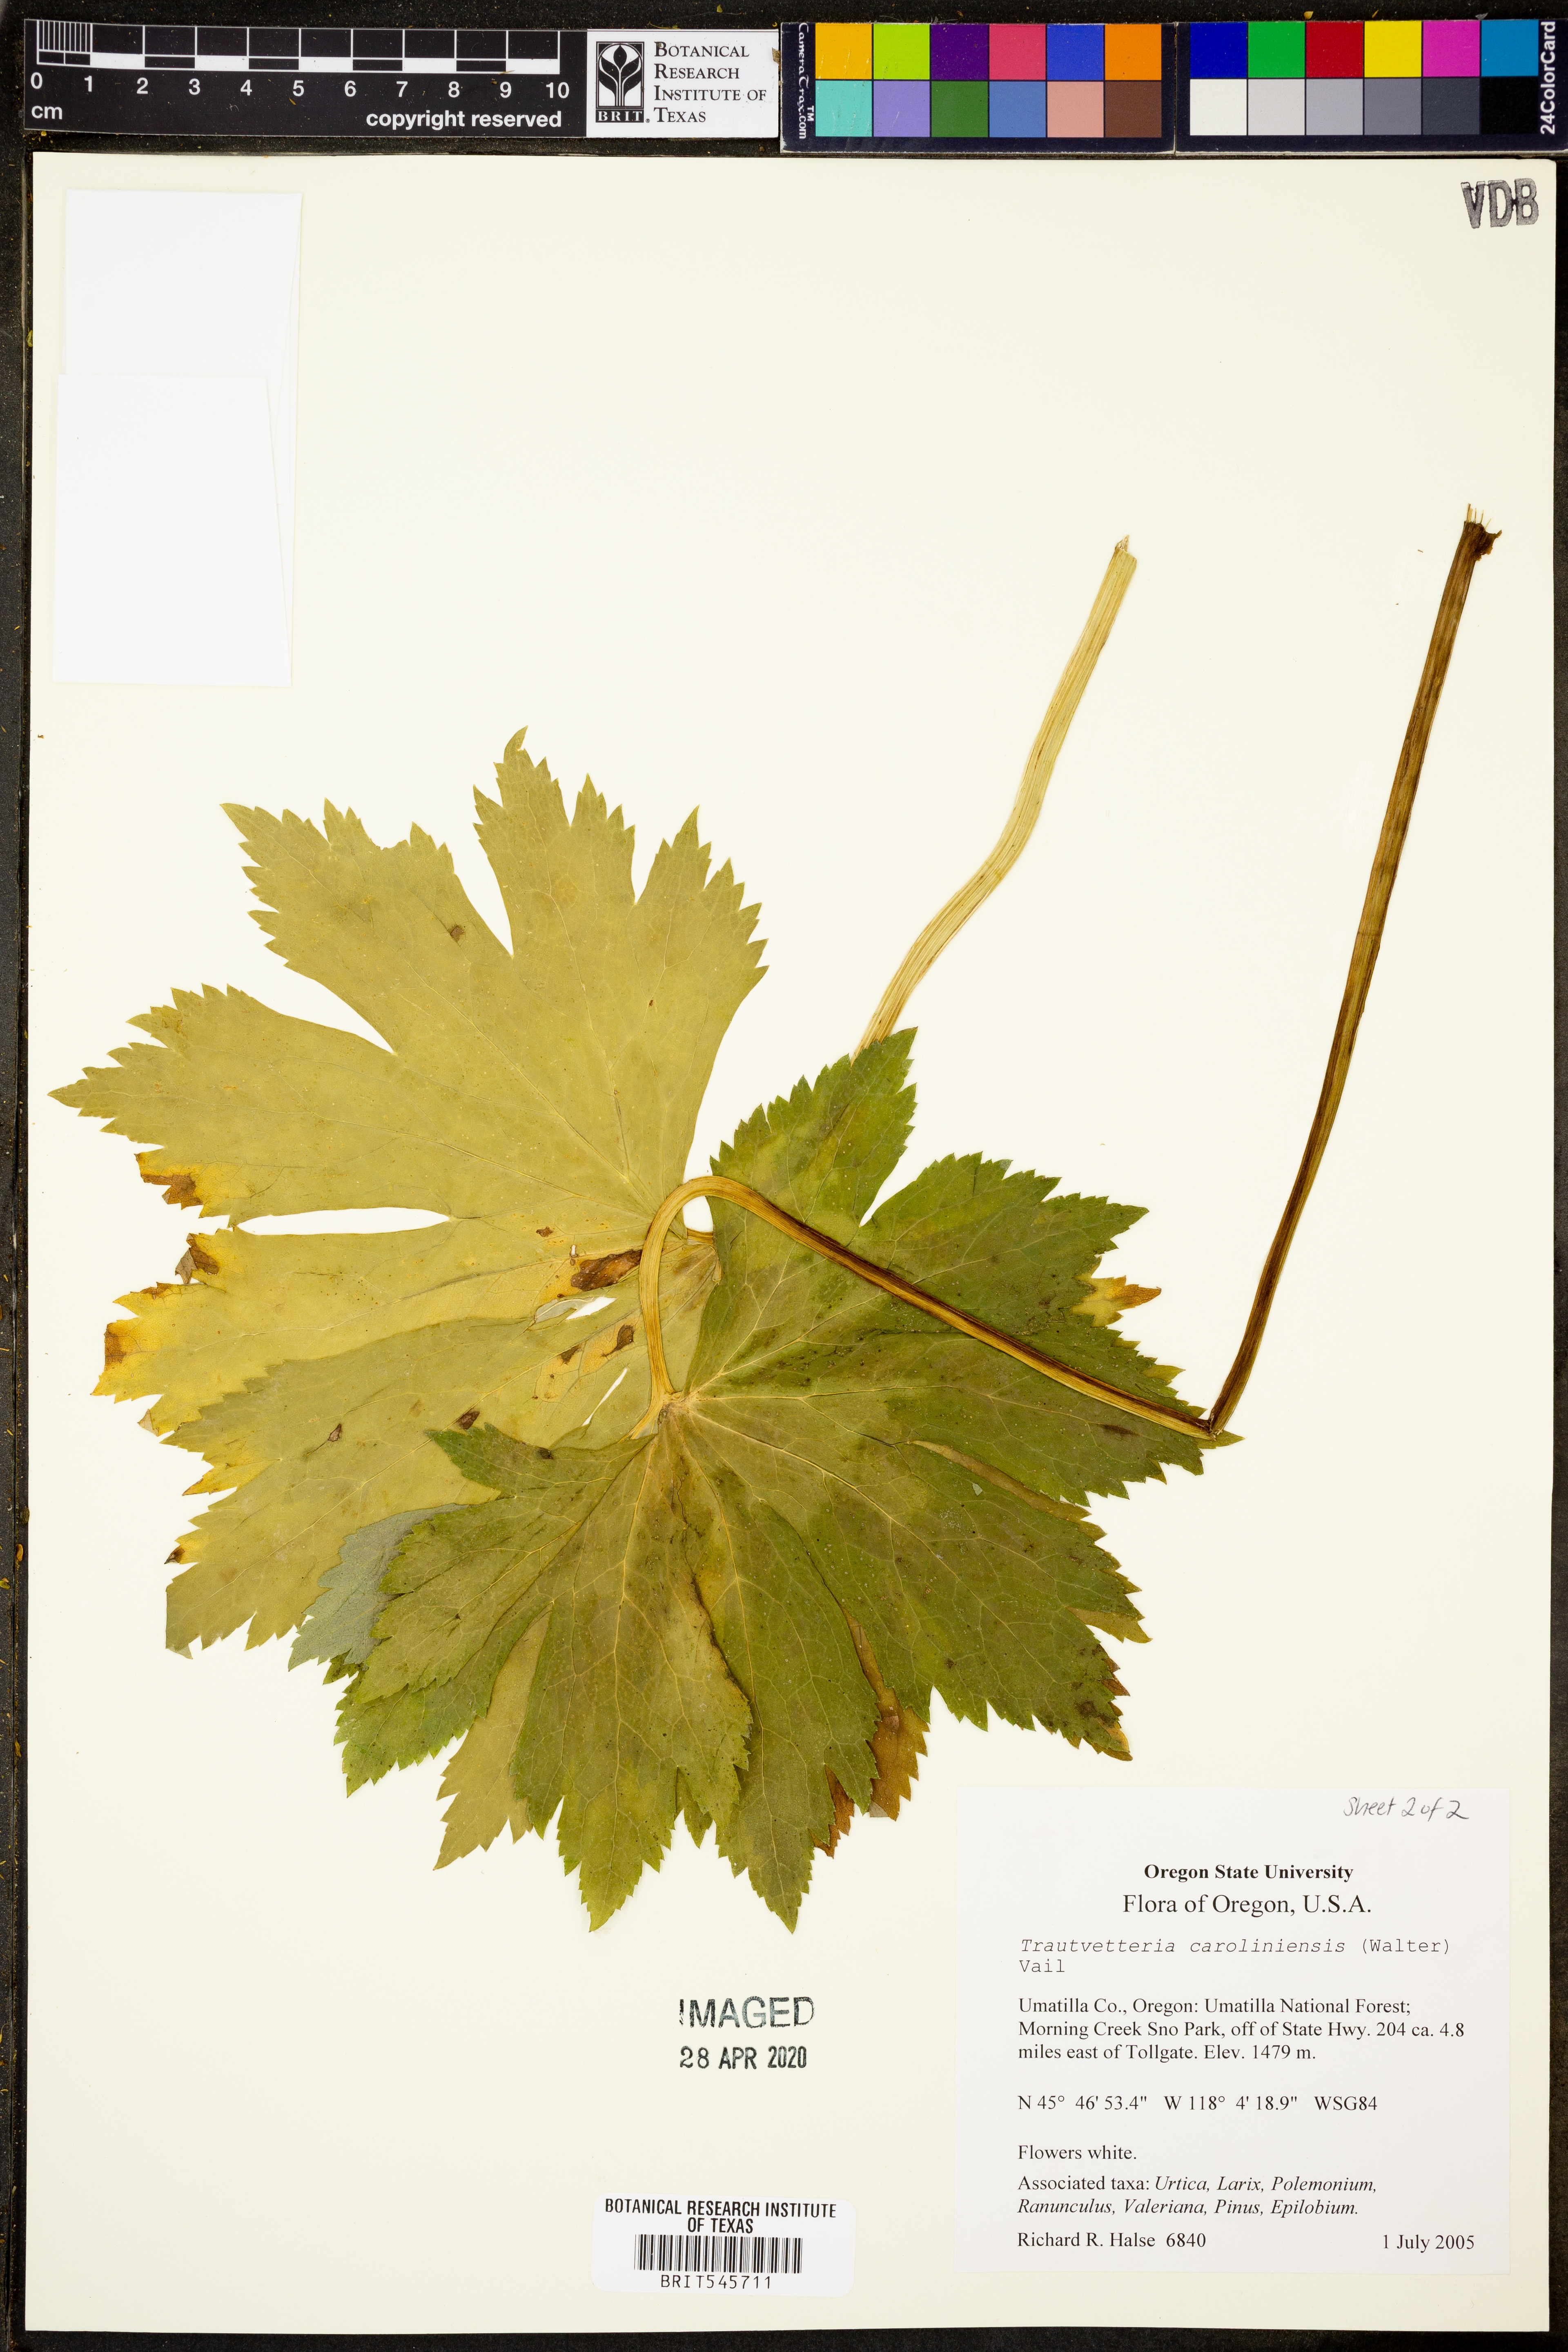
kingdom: Plantae
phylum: Tracheophyta
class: Magnoliopsida
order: Ranunculales
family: Ranunculaceae
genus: Trautvetteria
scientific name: Trautvetteria carolinensis
